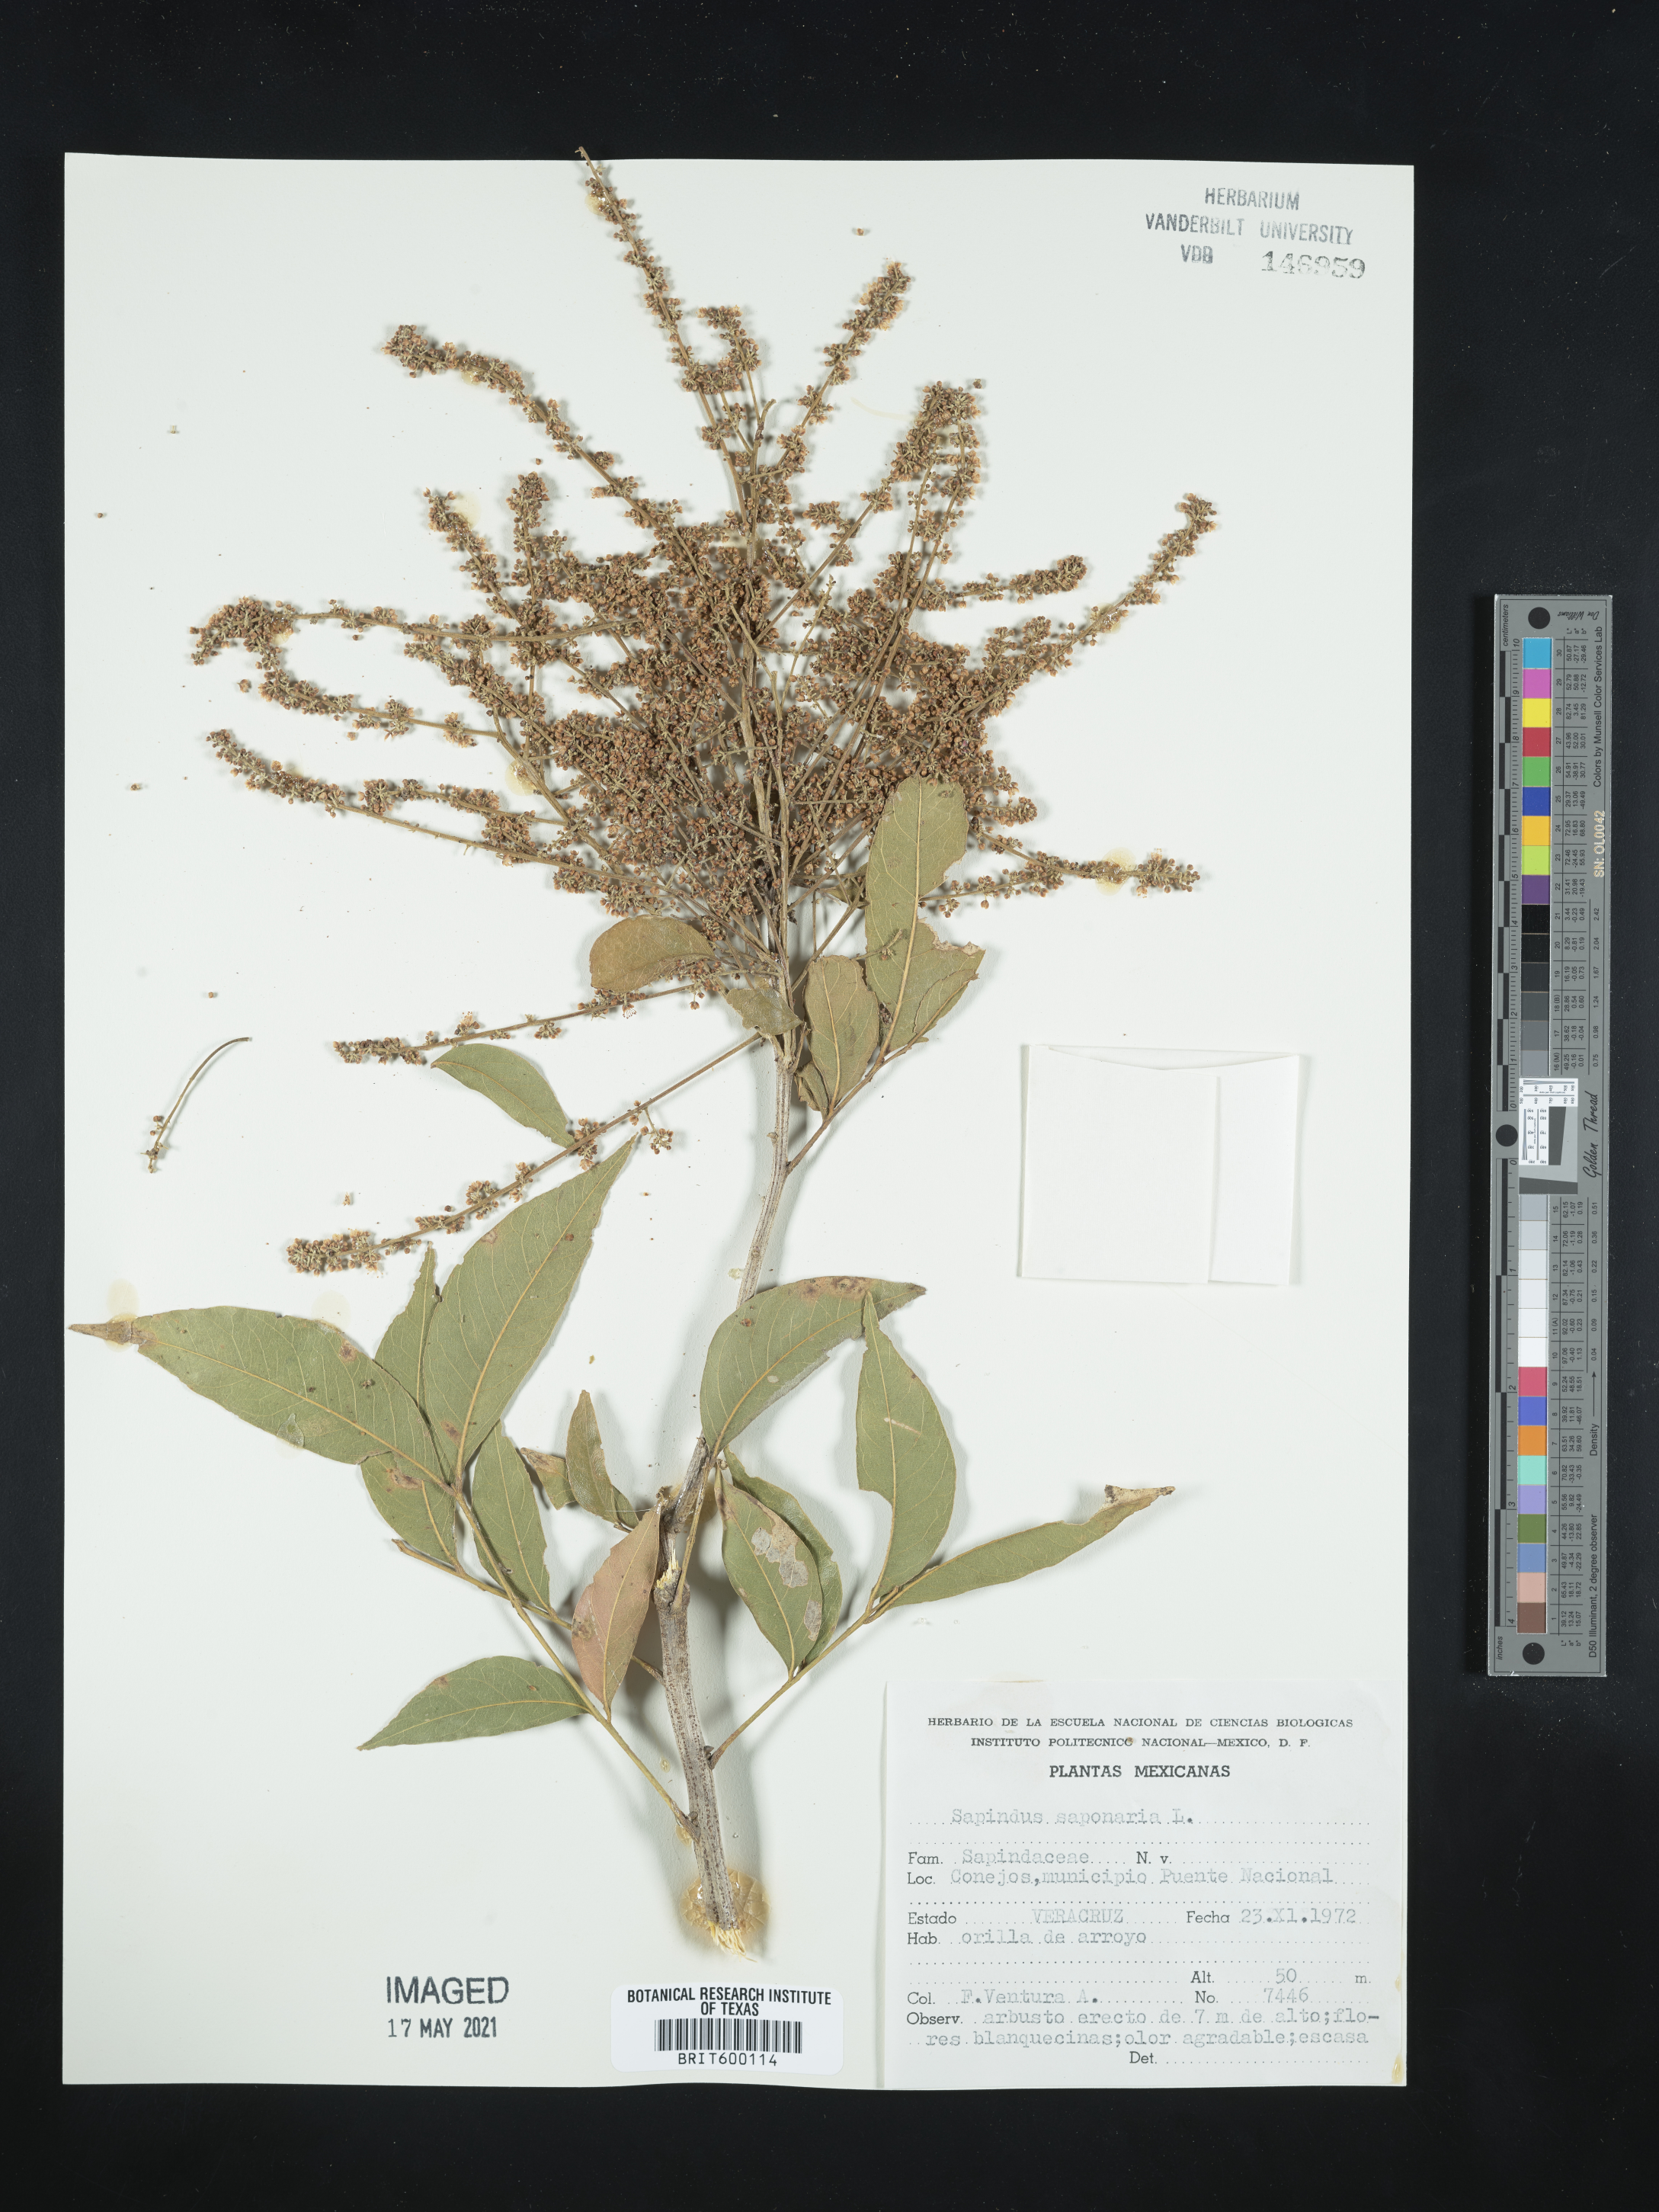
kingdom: Plantae
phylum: Tracheophyta
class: Magnoliopsida
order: Sapindales
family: Sapindaceae
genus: Sapindus
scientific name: Sapindus saponaria
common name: Wingleaf soapberry
